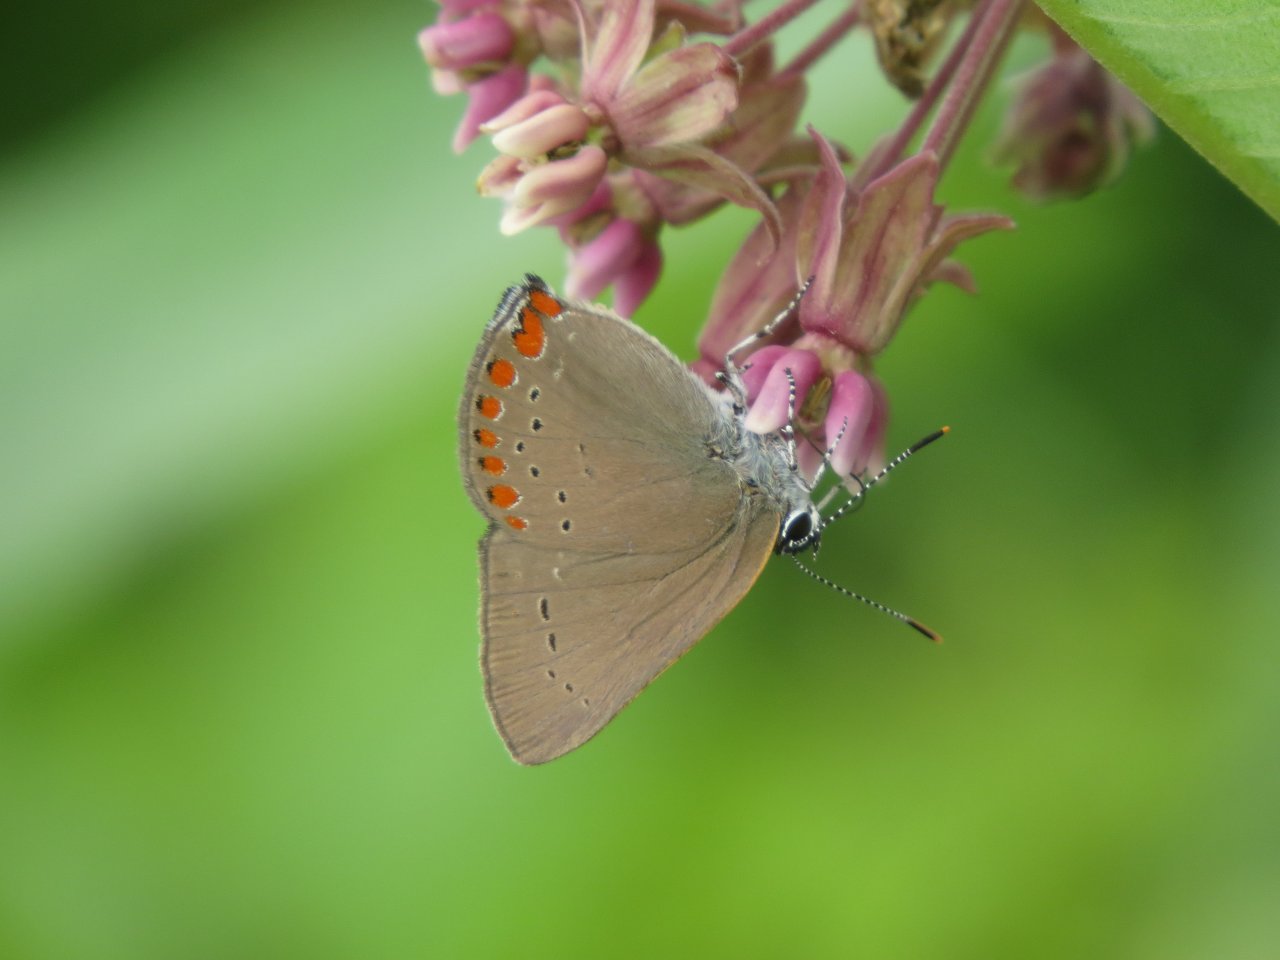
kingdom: Animalia
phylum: Arthropoda
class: Insecta
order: Lepidoptera
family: Lycaenidae
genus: Harkenclenus
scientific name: Harkenclenus titus
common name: Coral Hairstreak
